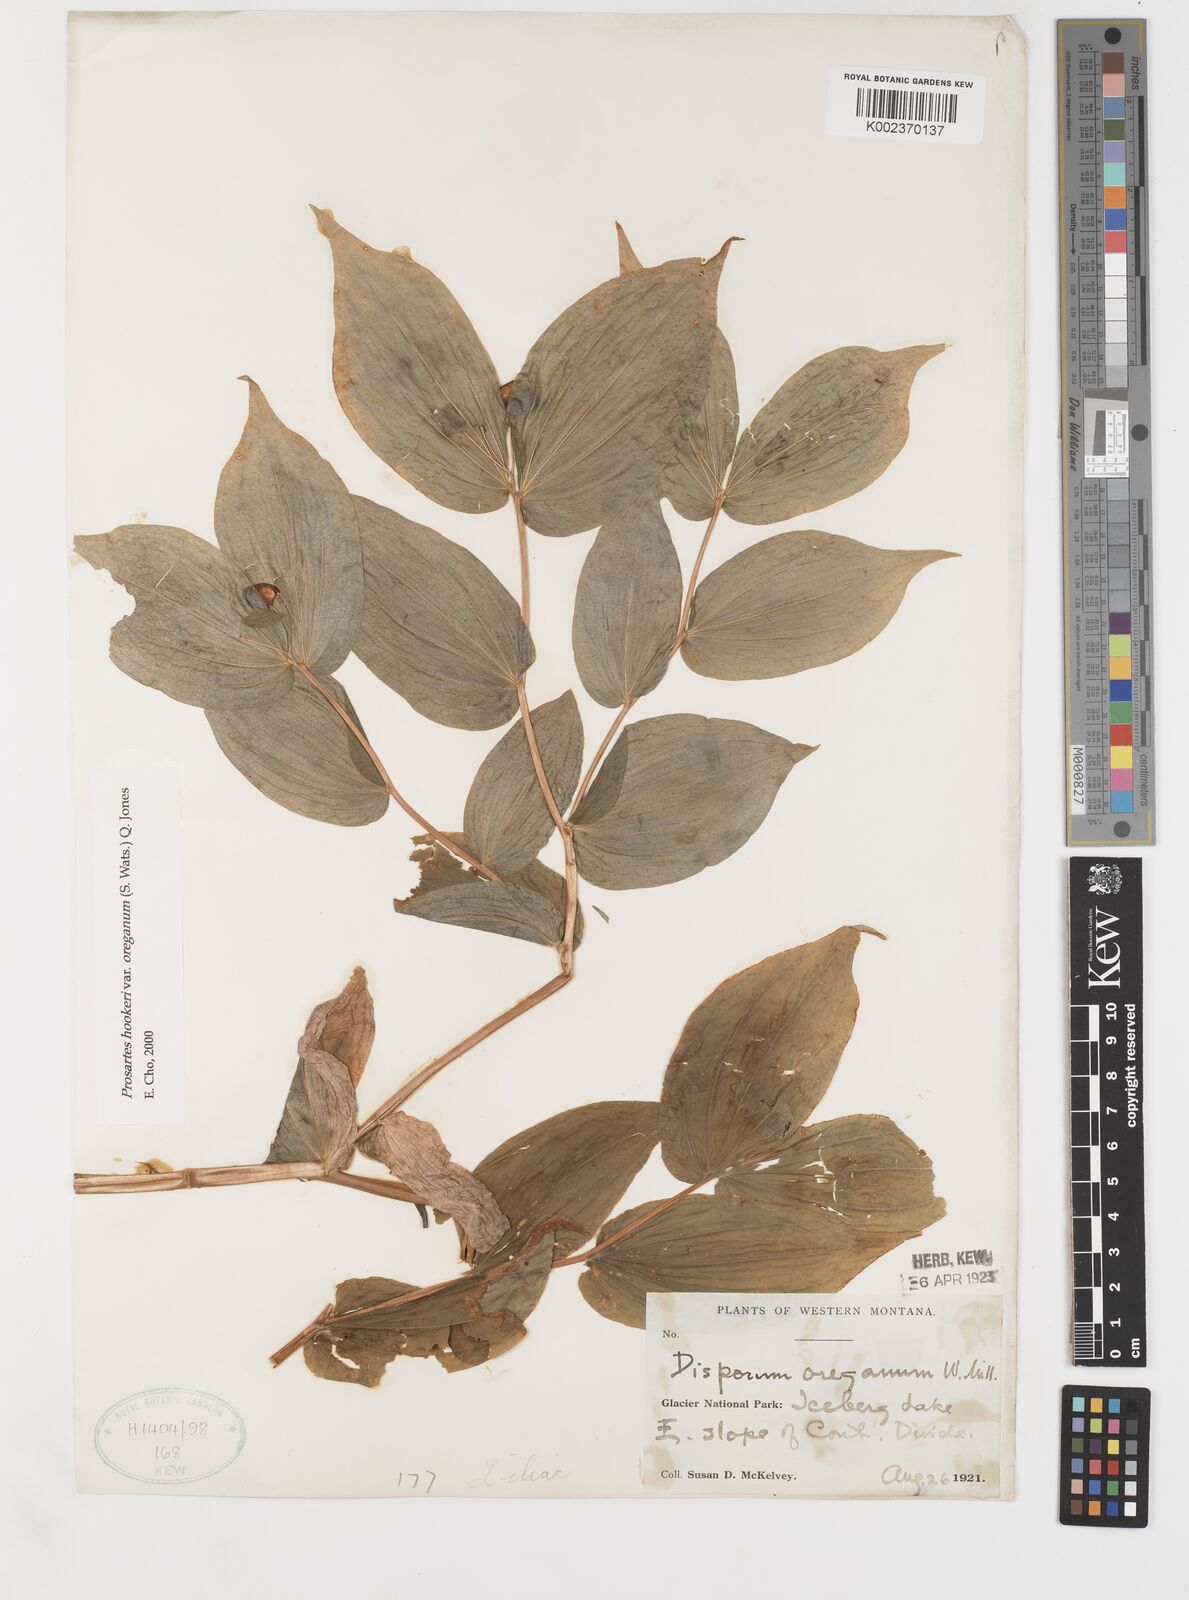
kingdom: Plantae
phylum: Tracheophyta
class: Liliopsida
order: Liliales
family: Liliaceae
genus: Prosartes
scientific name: Prosartes hookeri
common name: Fairy-bells
